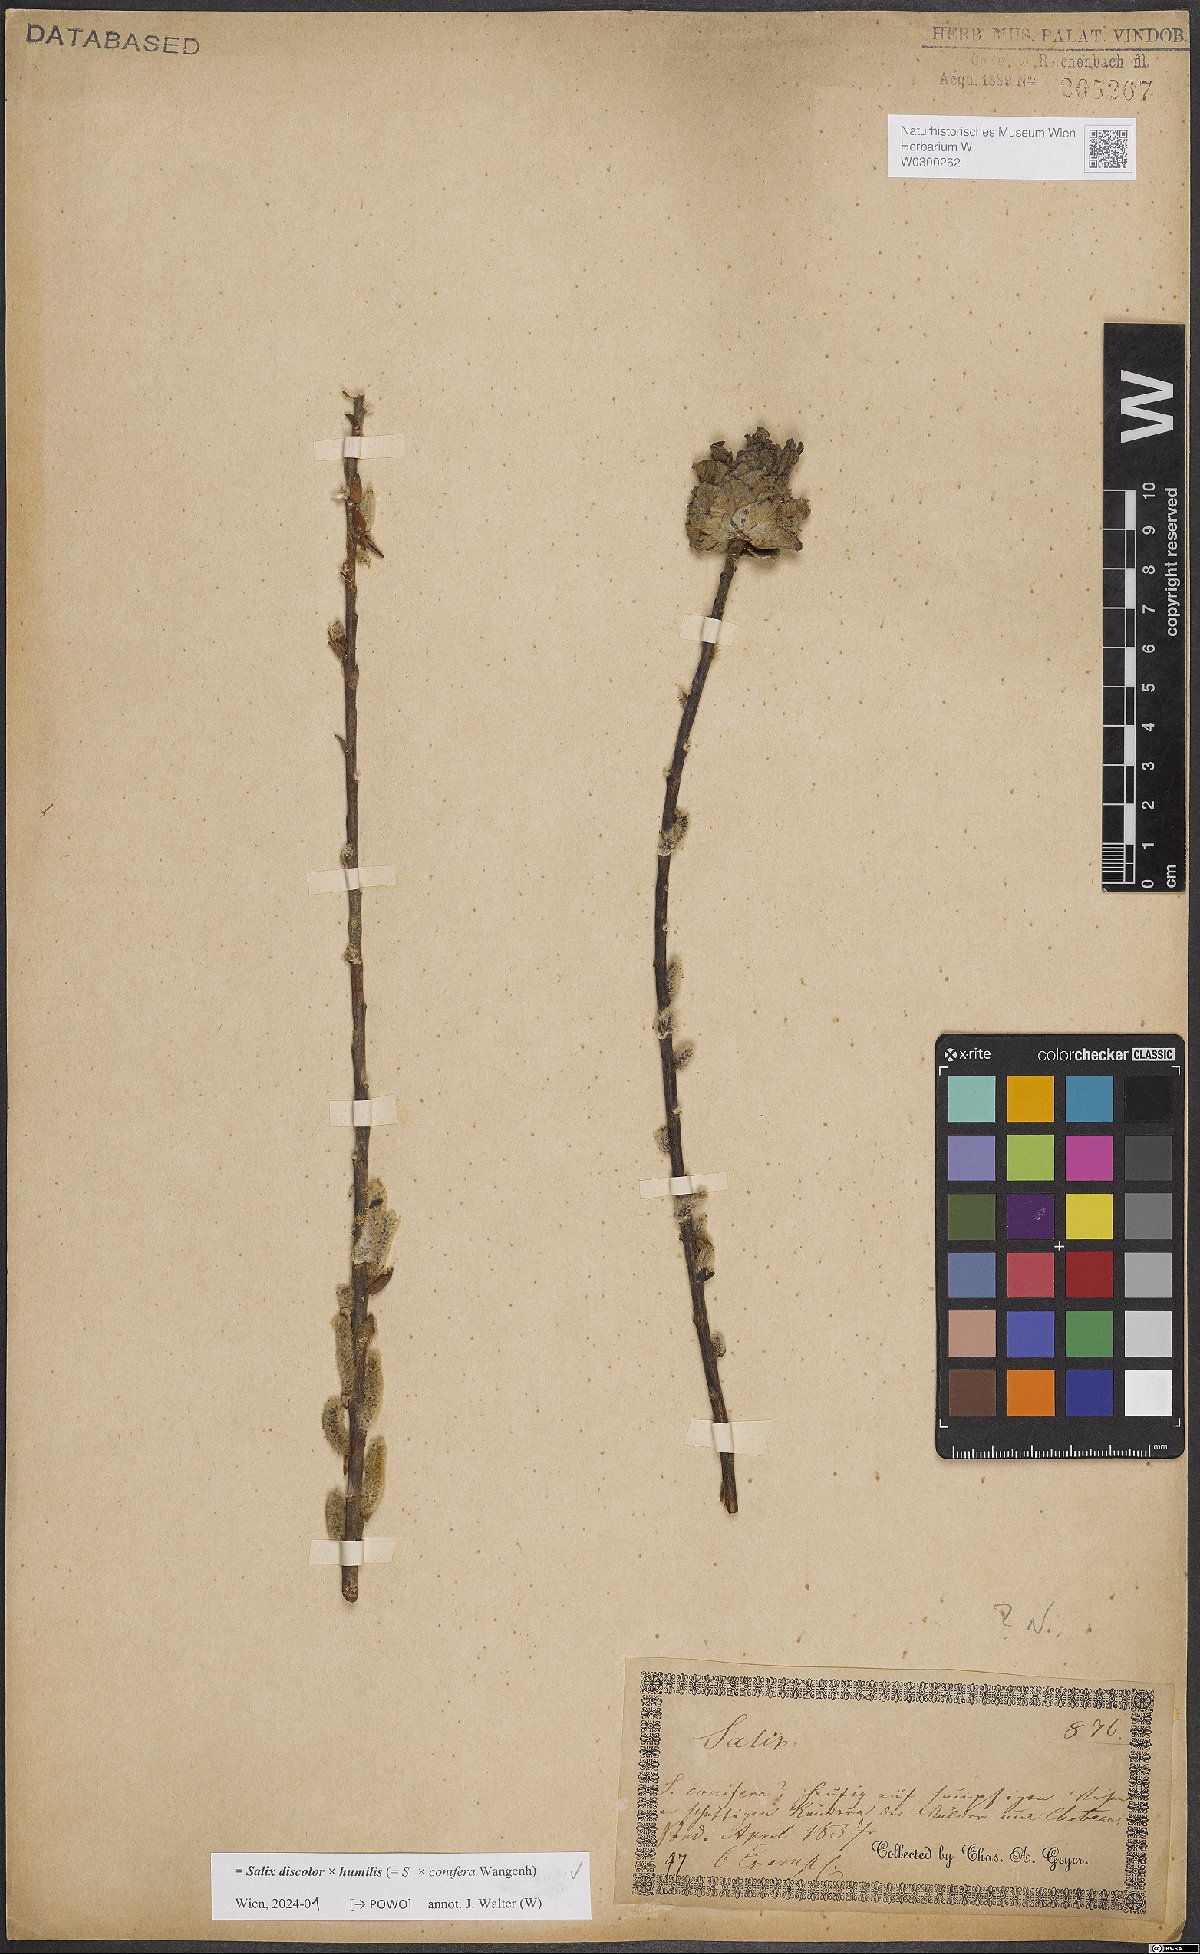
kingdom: Plantae
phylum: Tracheophyta
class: Magnoliopsida
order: Malpighiales
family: Salicaceae
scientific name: Salicaceae
